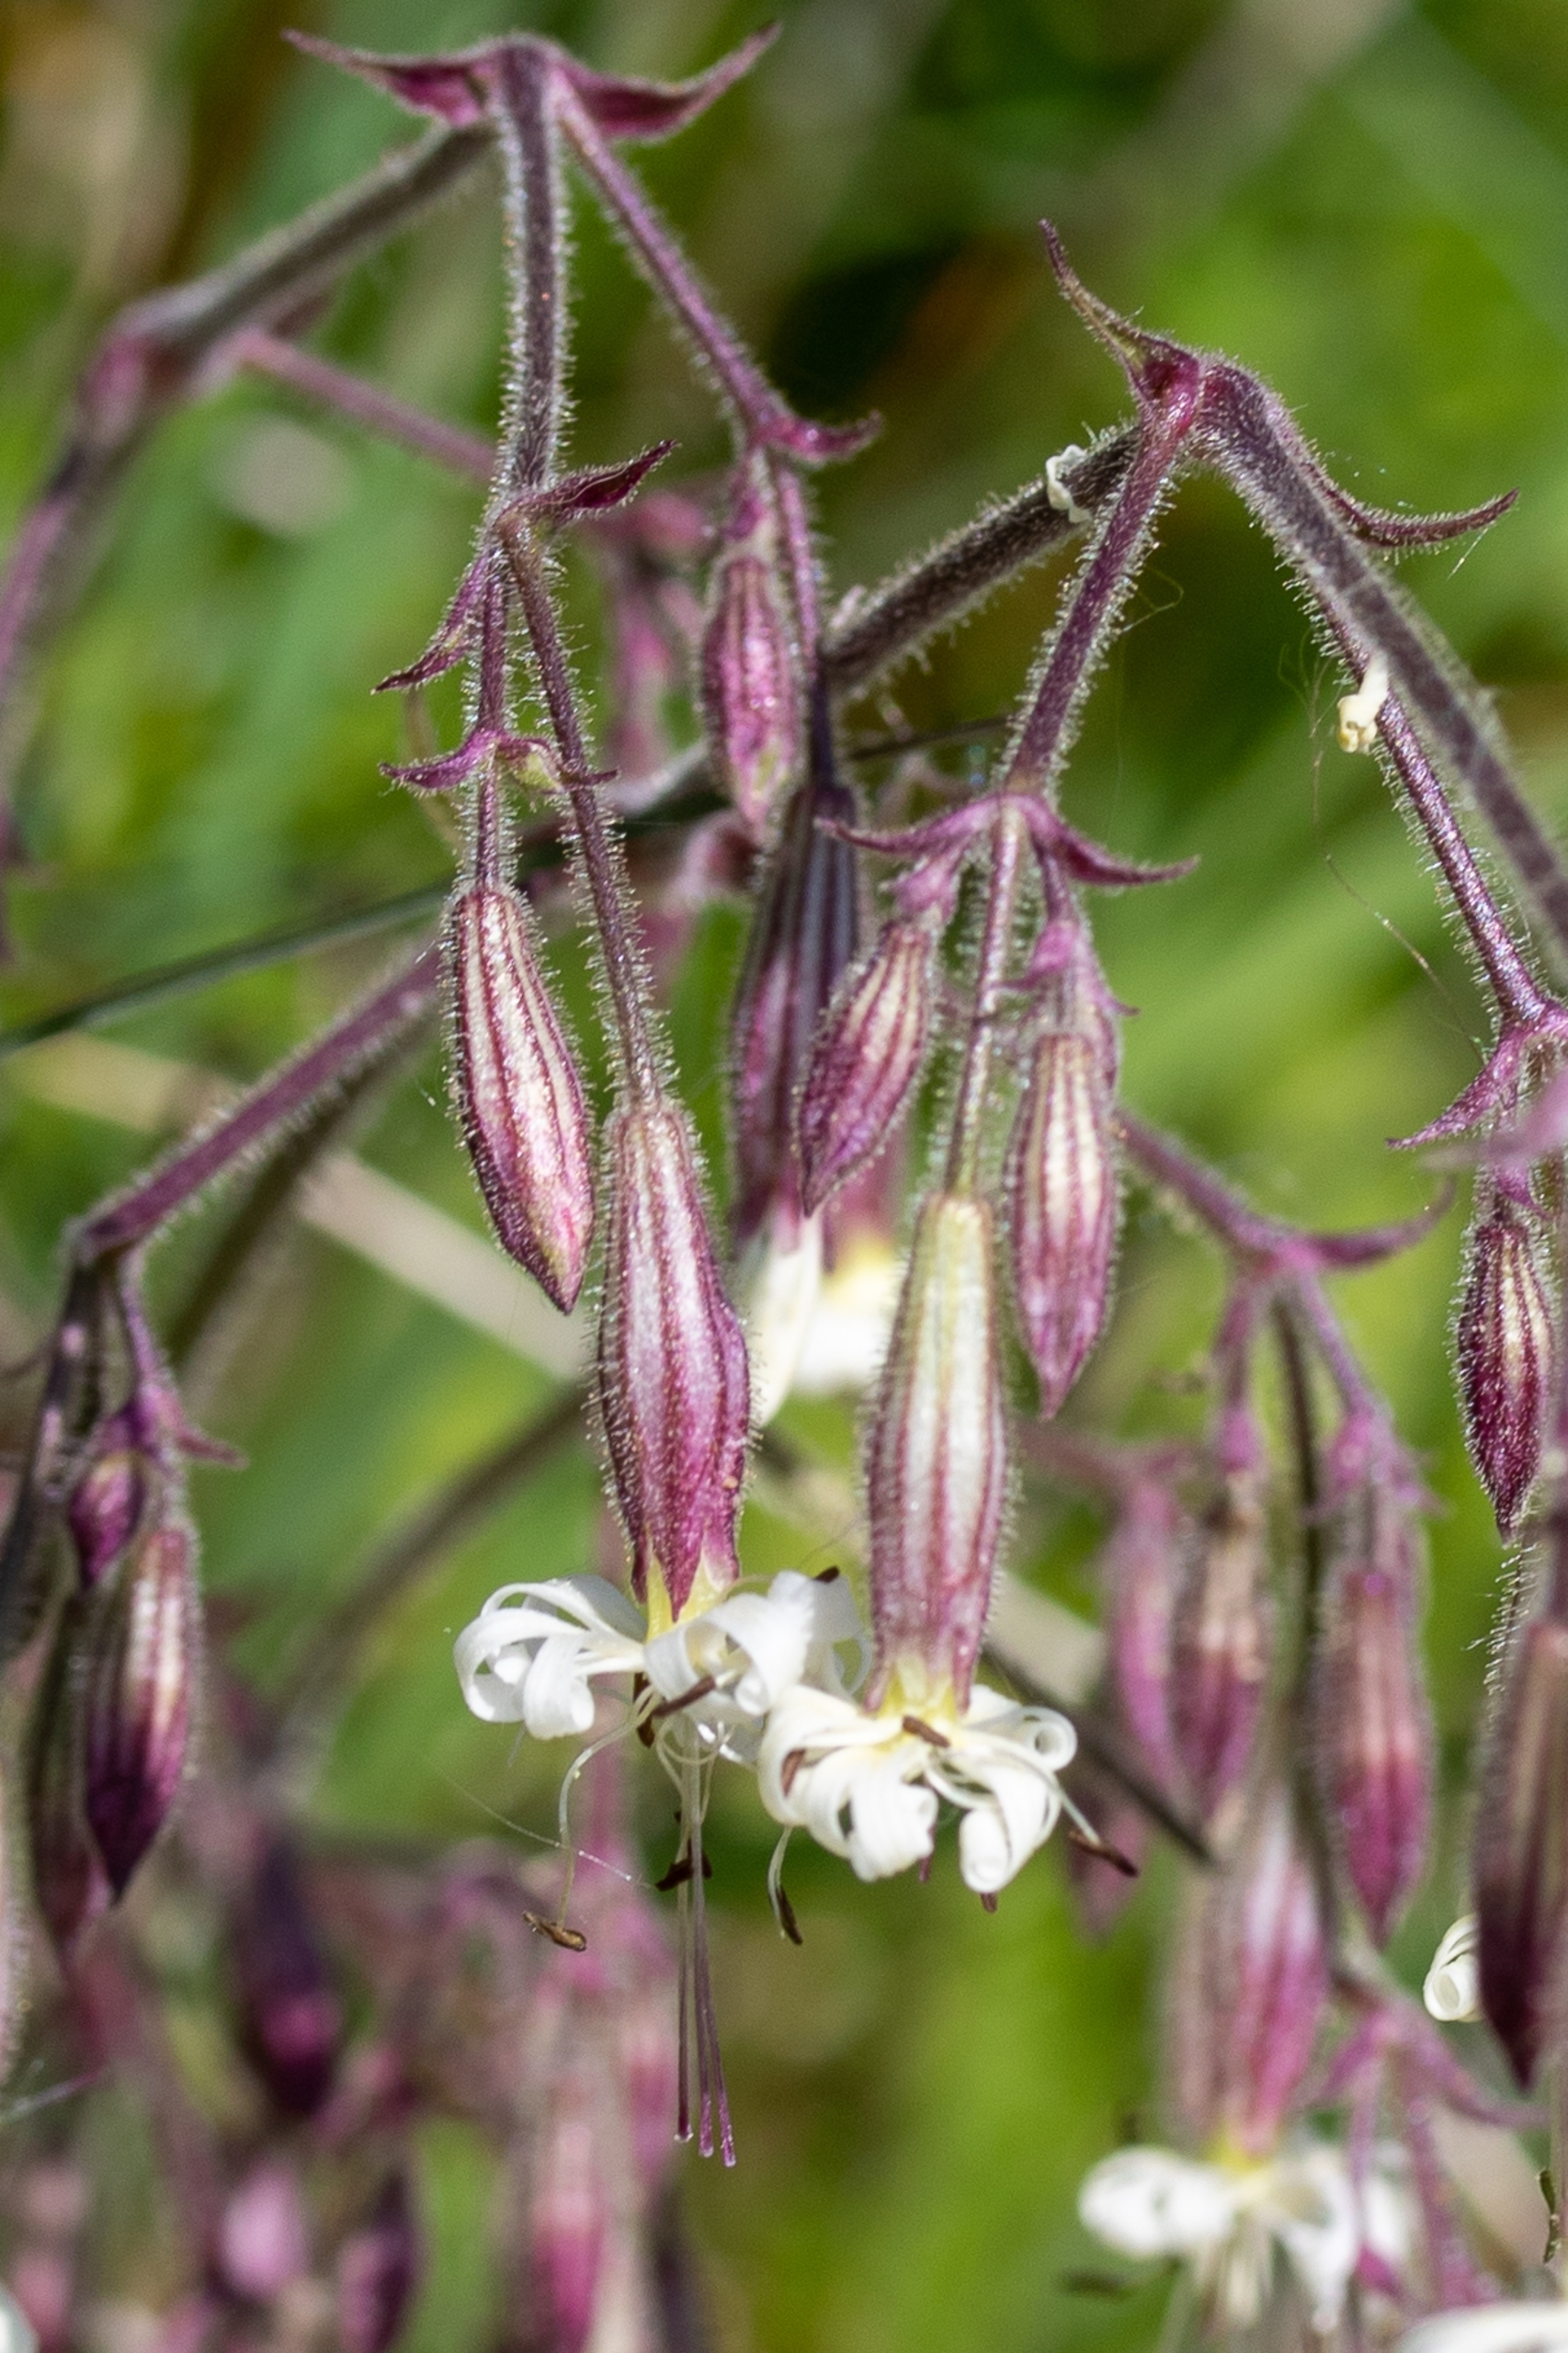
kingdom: Plantae
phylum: Tracheophyta
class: Magnoliopsida
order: Caryophyllales
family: Caryophyllaceae
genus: Silene
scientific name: Silene nutans
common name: Nikkende limurt
